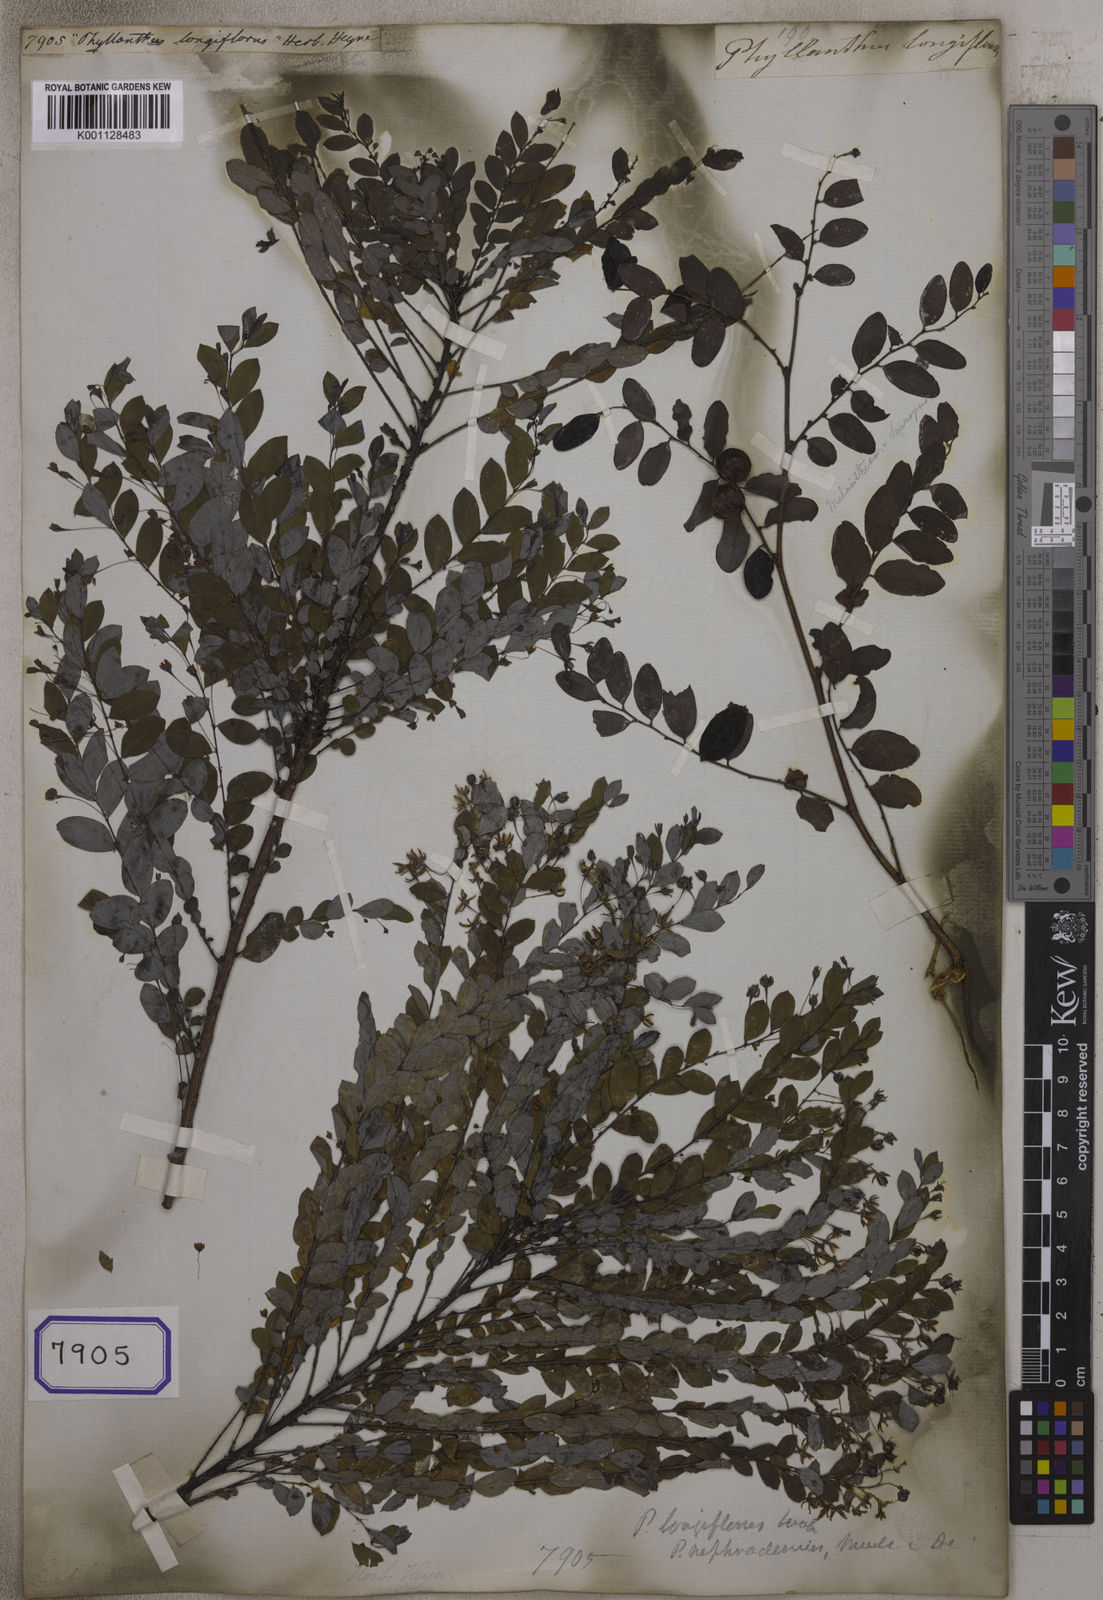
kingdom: Plantae
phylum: Tracheophyta
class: Magnoliopsida
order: Malpighiales
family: Euphorbiaceae
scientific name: Euphorbiaceae
